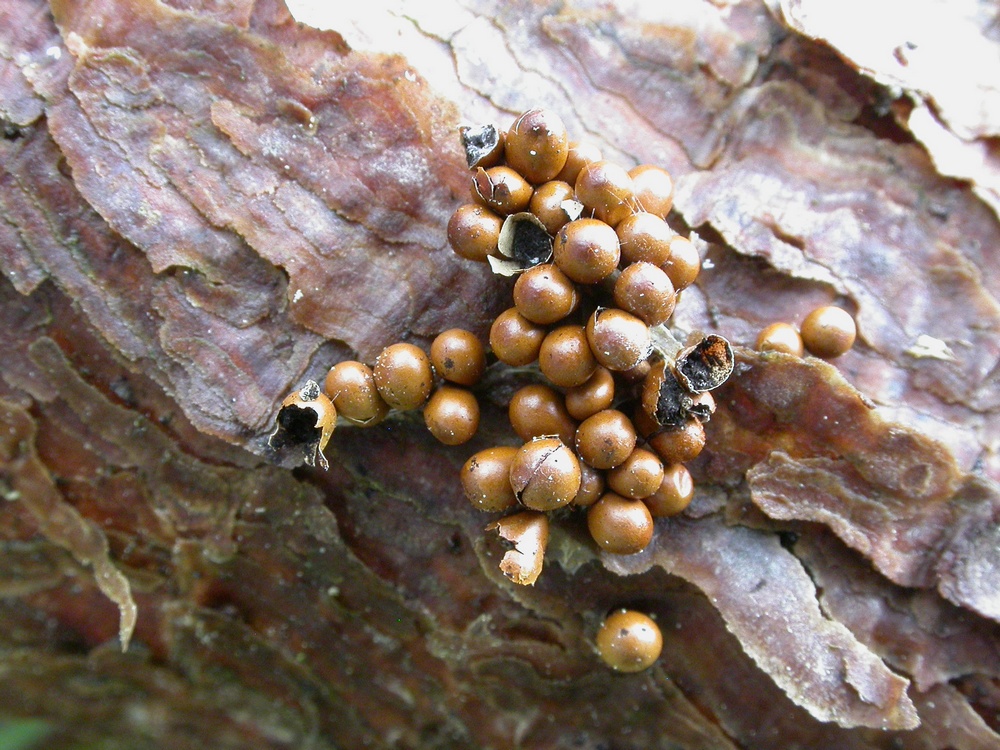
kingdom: Protozoa
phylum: Mycetozoa
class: Myxomycetes
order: Physarales
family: Physaraceae
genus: Leocarpus
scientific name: Leocarpus fragilis
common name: poleret glatfrø
